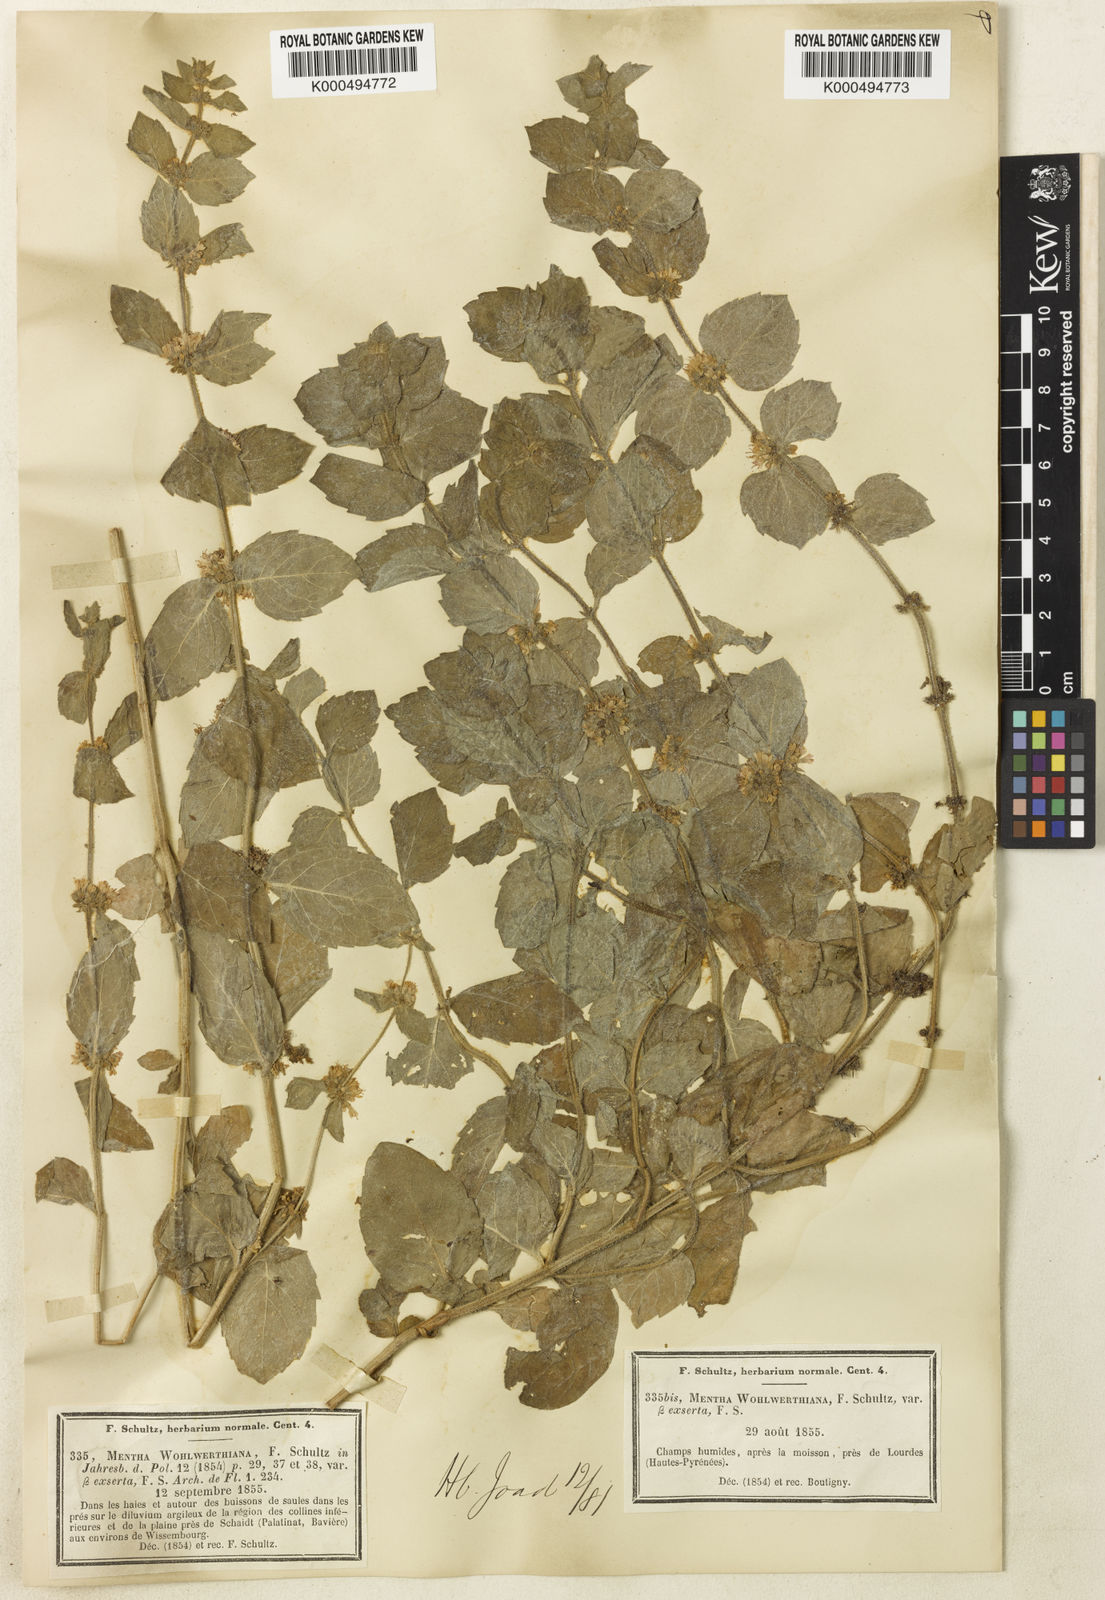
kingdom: Plantae
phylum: Tracheophyta
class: Magnoliopsida
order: Lamiales
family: Lamiaceae
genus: Mentha
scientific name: Mentha carinthiaca
